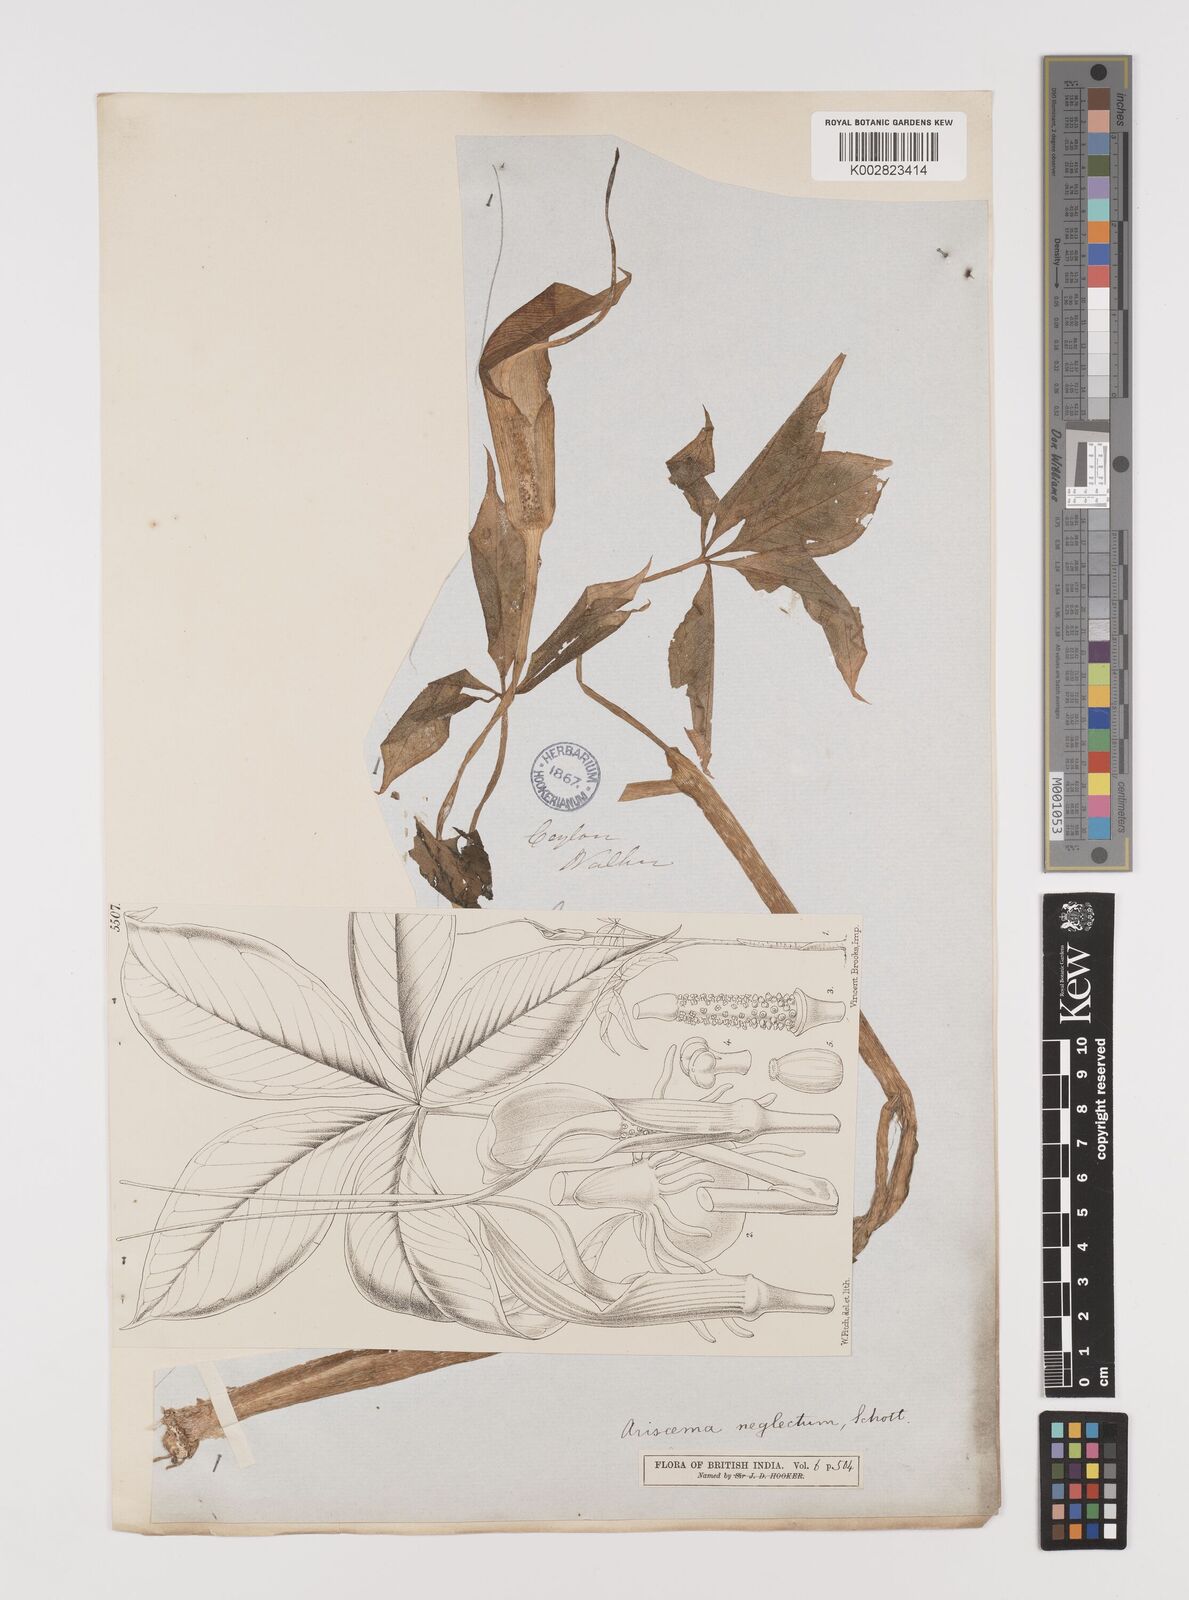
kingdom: Plantae
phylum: Tracheophyta
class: Liliopsida
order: Alismatales
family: Araceae
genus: Arisaema
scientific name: Arisaema tortuosum
